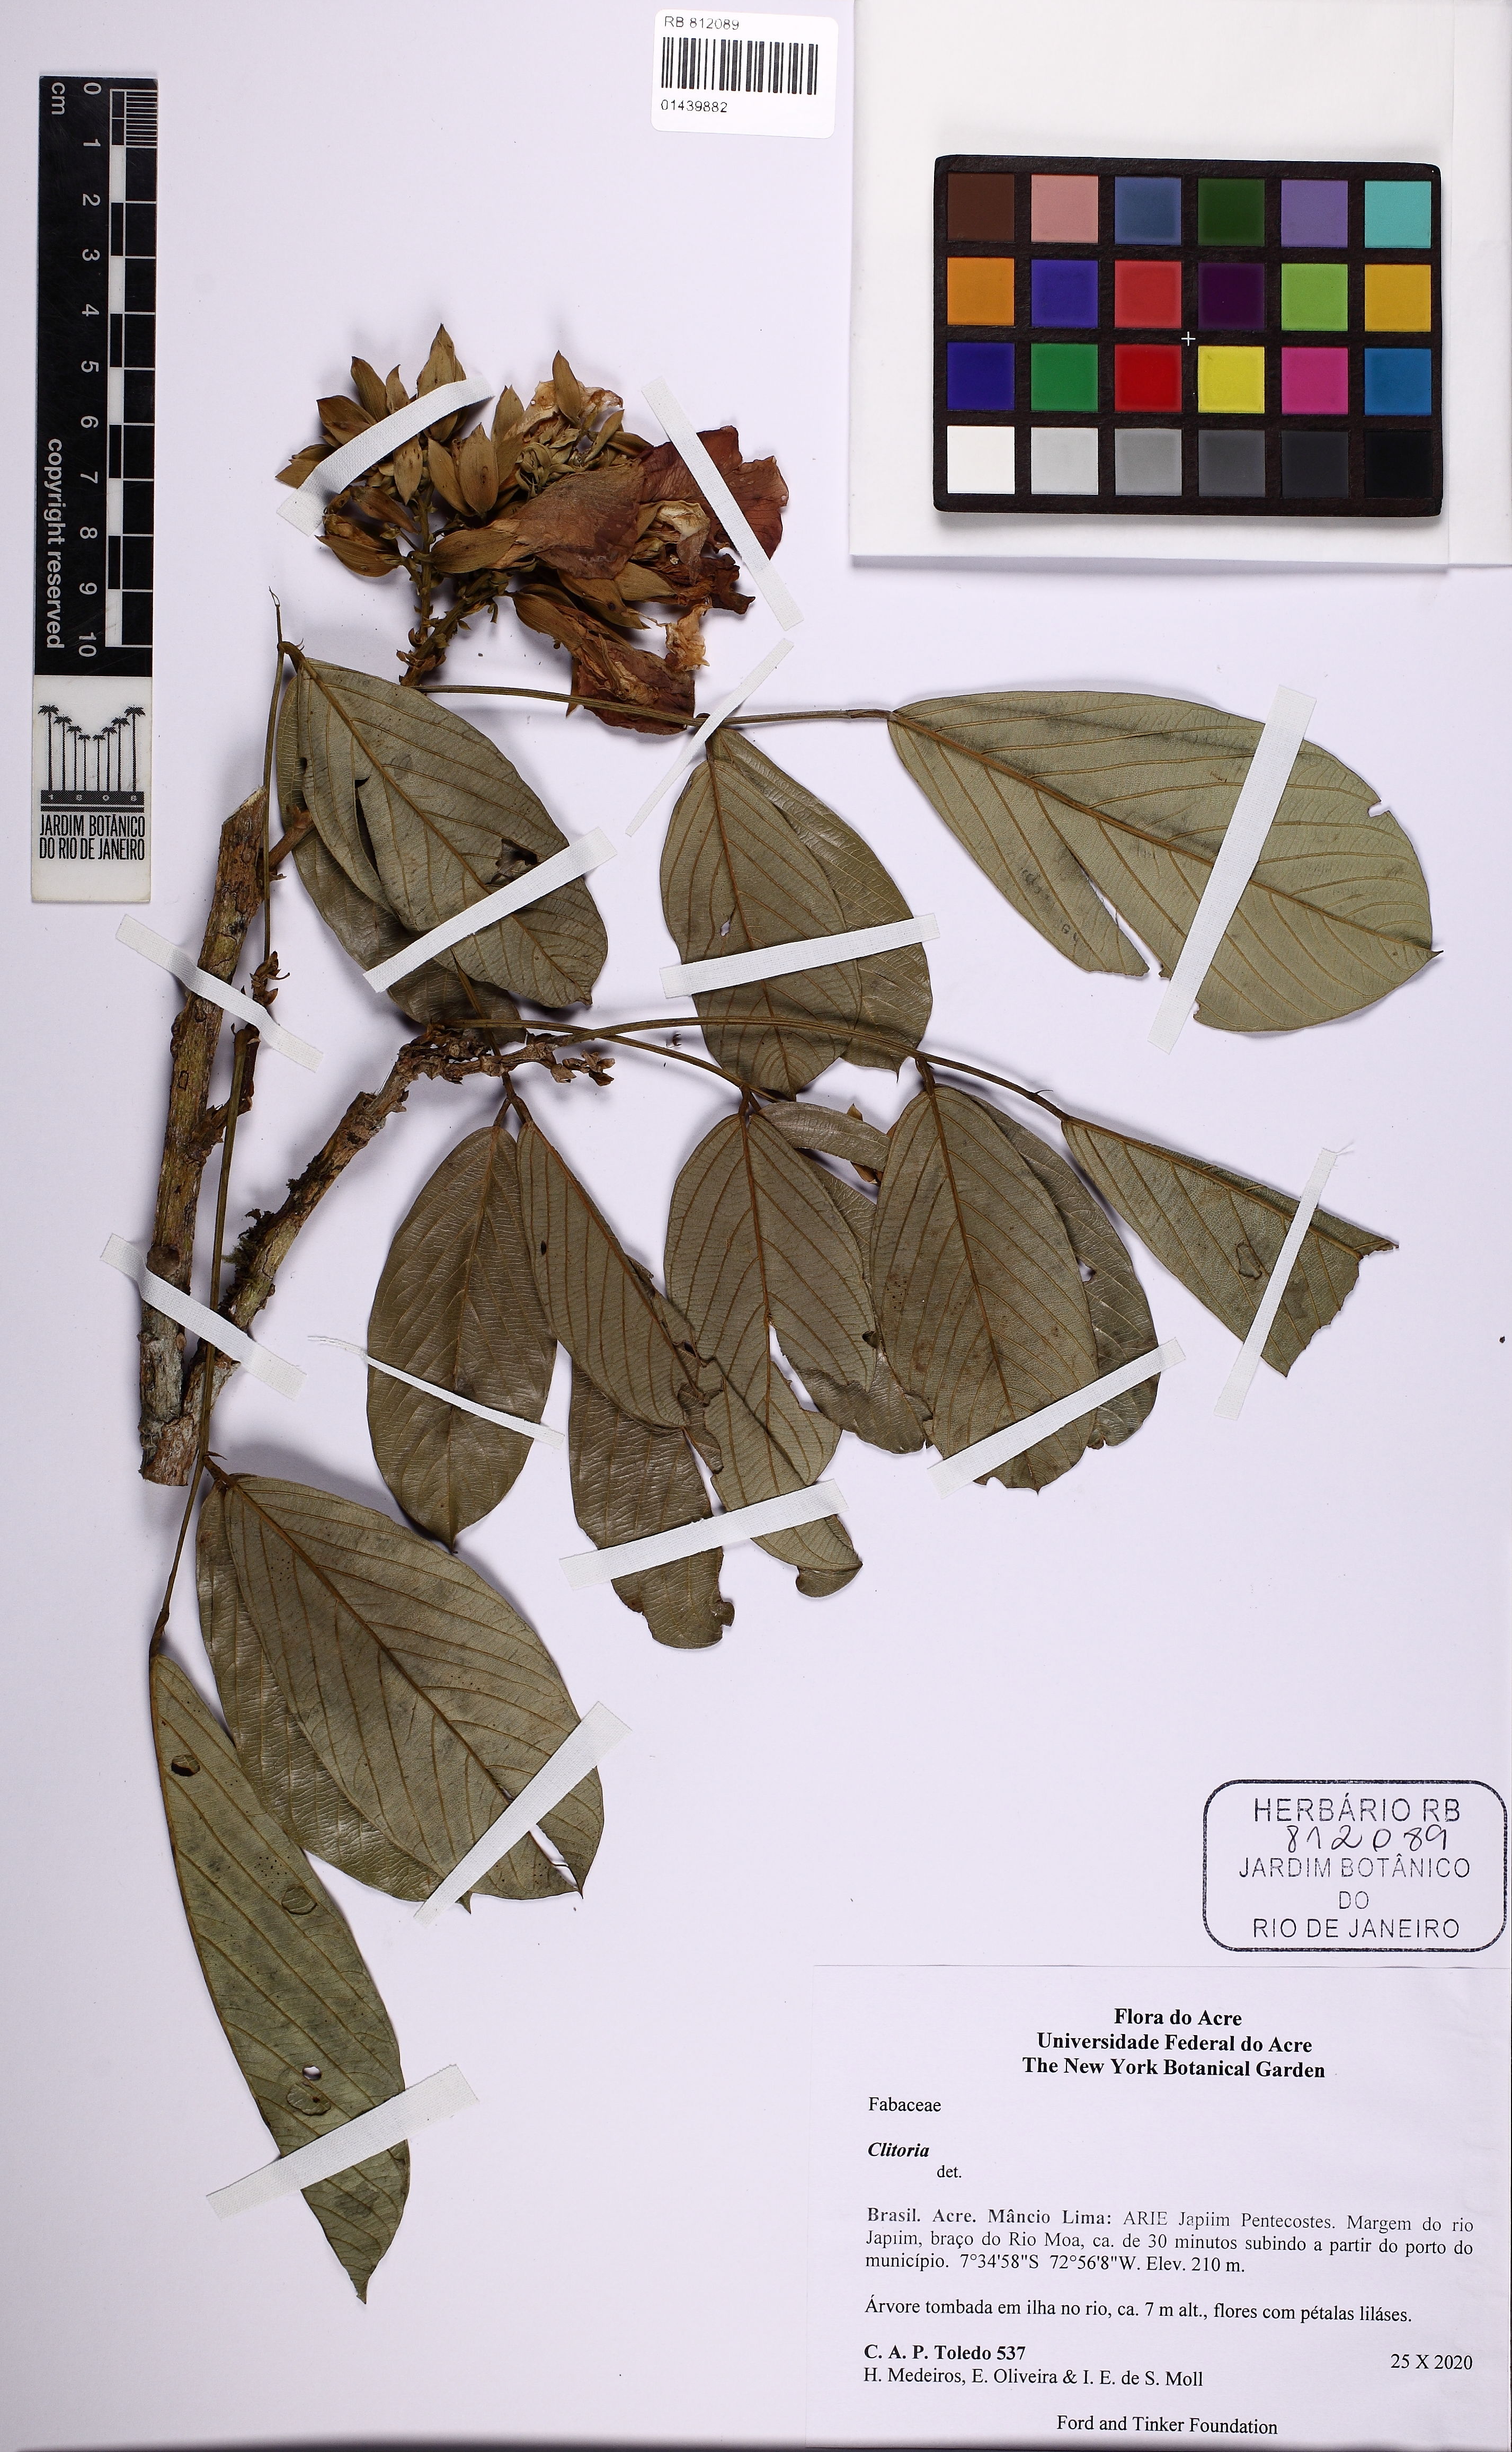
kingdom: Plantae
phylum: Tracheophyta
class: Magnoliopsida
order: Fabales
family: Fabaceae
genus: Clitoria
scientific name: Clitoria
